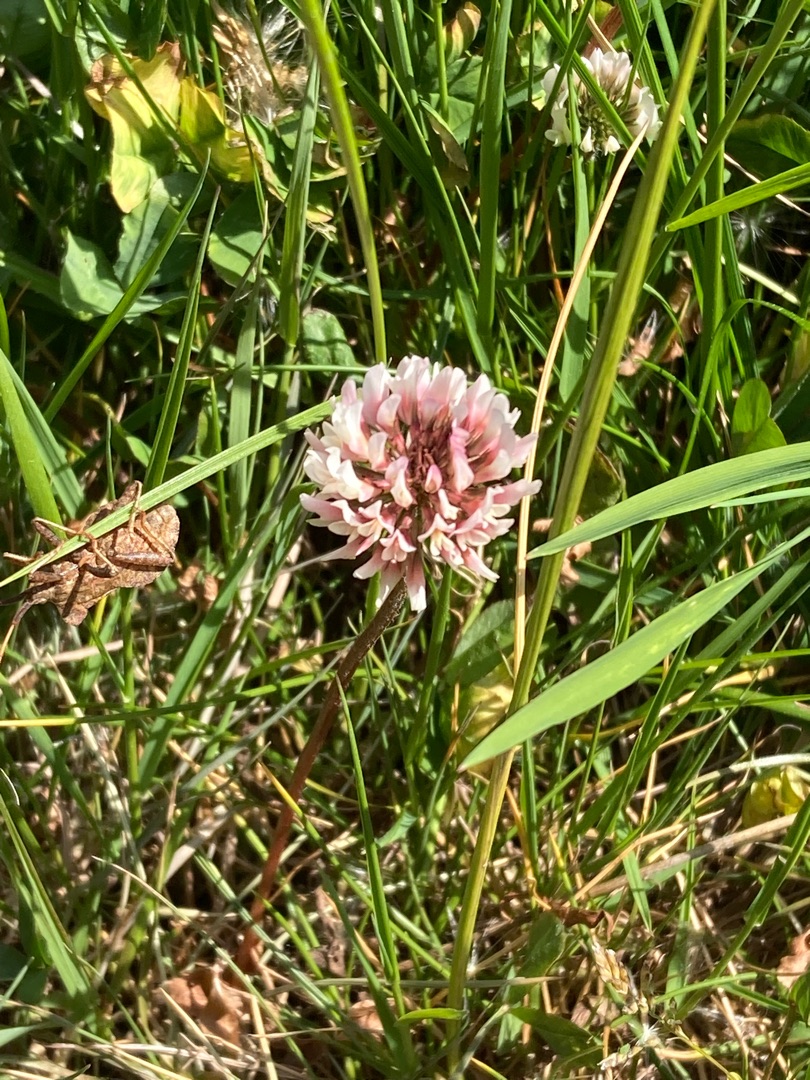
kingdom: Plantae
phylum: Tracheophyta
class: Magnoliopsida
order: Fabales
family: Fabaceae
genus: Trifolium
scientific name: Trifolium repens
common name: Hvid-kløver
